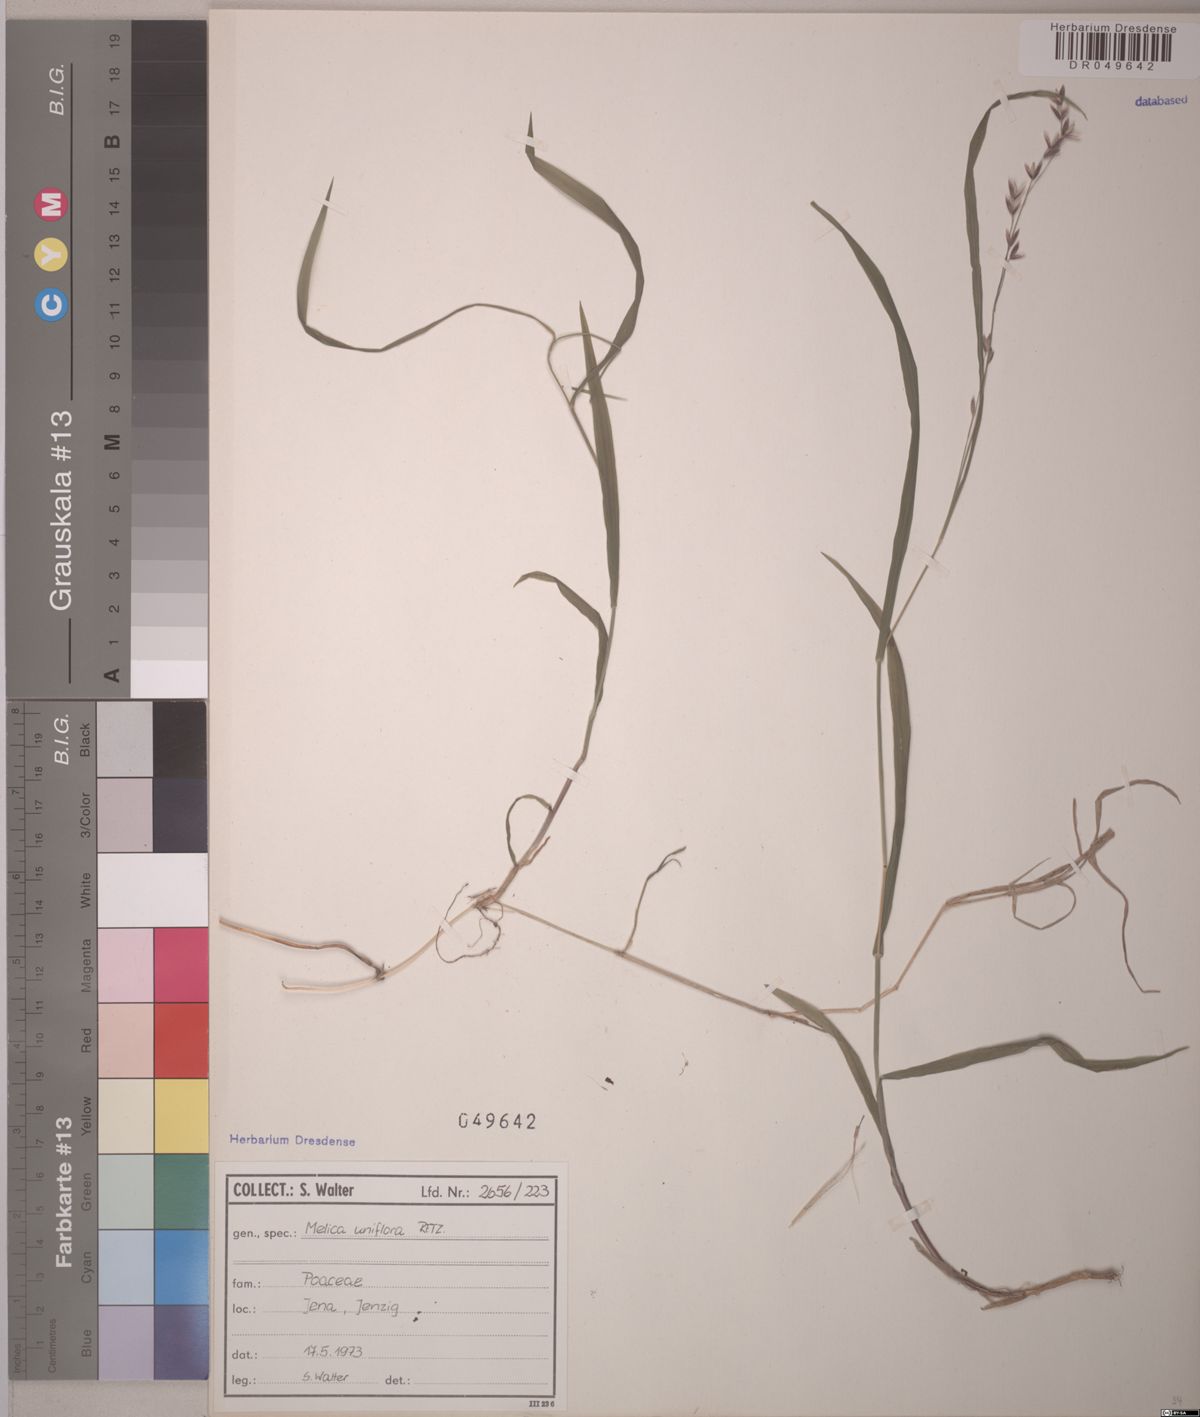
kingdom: Plantae
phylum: Tracheophyta
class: Liliopsida
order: Poales
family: Poaceae
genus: Melica
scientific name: Melica uniflora
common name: Wood melick
